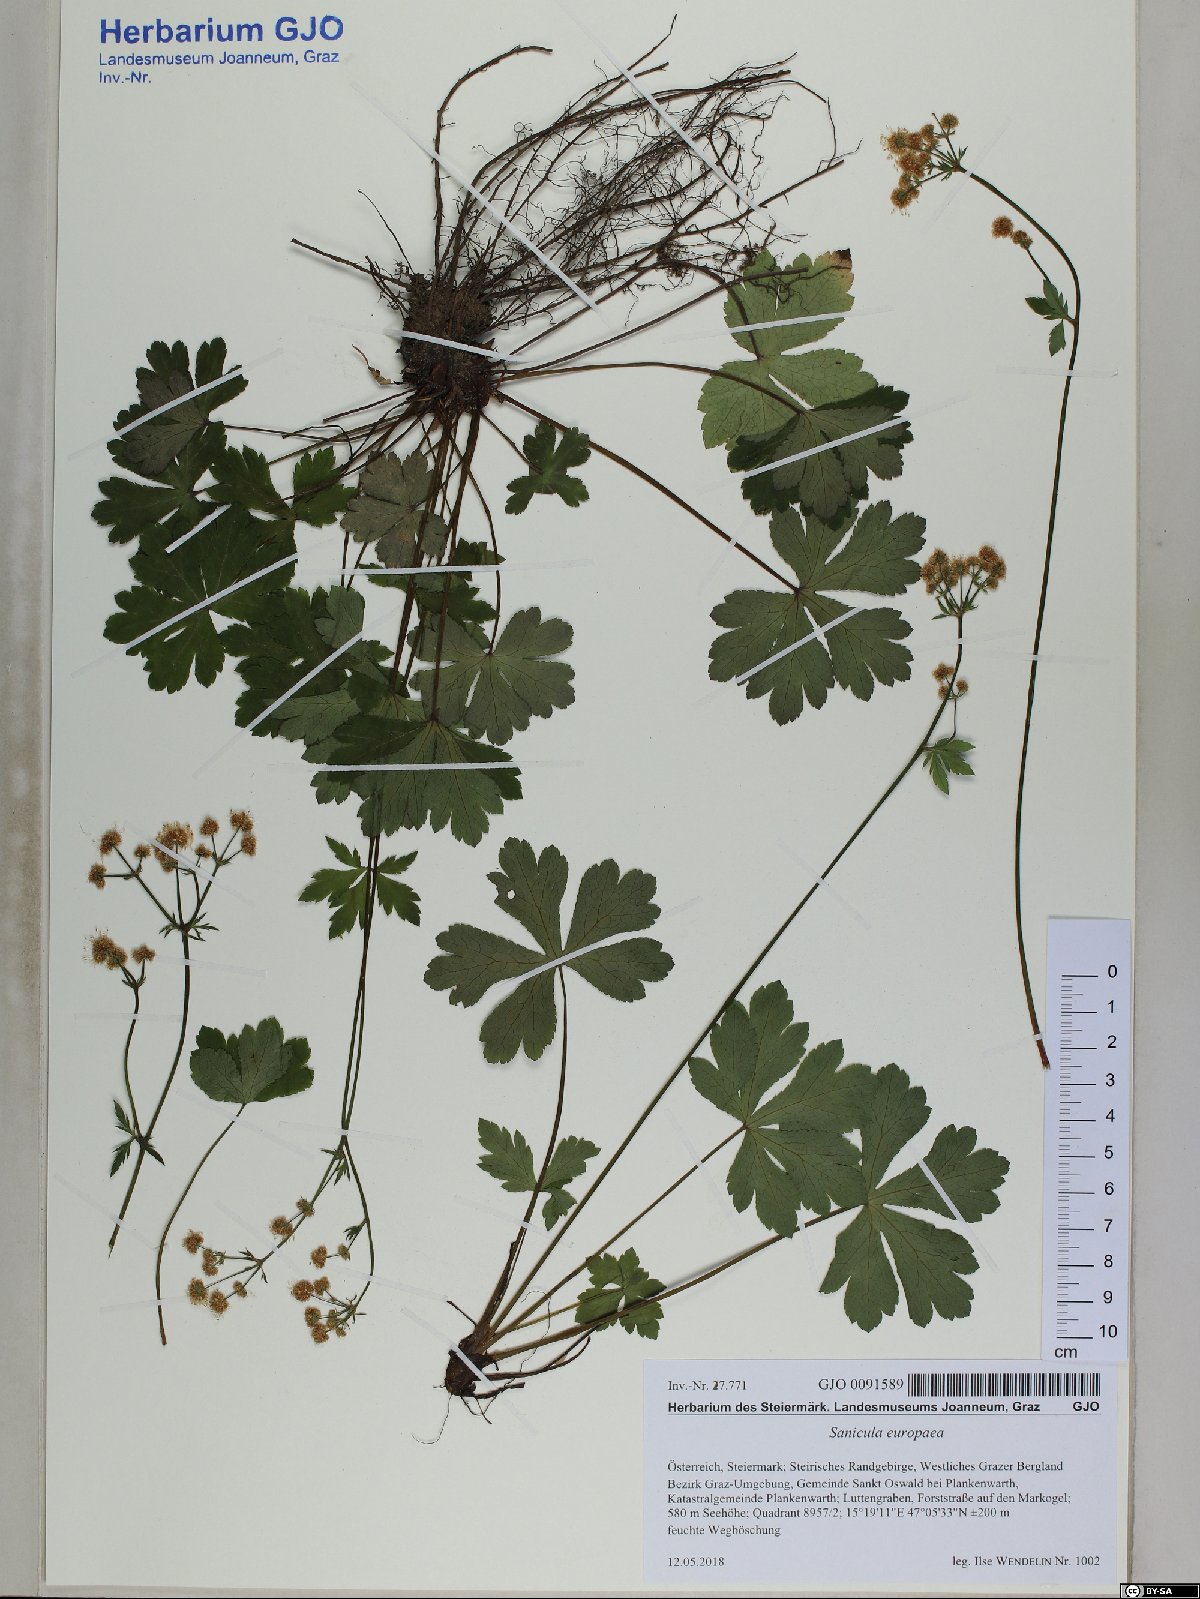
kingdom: Plantae
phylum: Tracheophyta
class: Magnoliopsida
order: Apiales
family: Apiaceae
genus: Sanicula
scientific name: Sanicula europaea
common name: Sanicle
